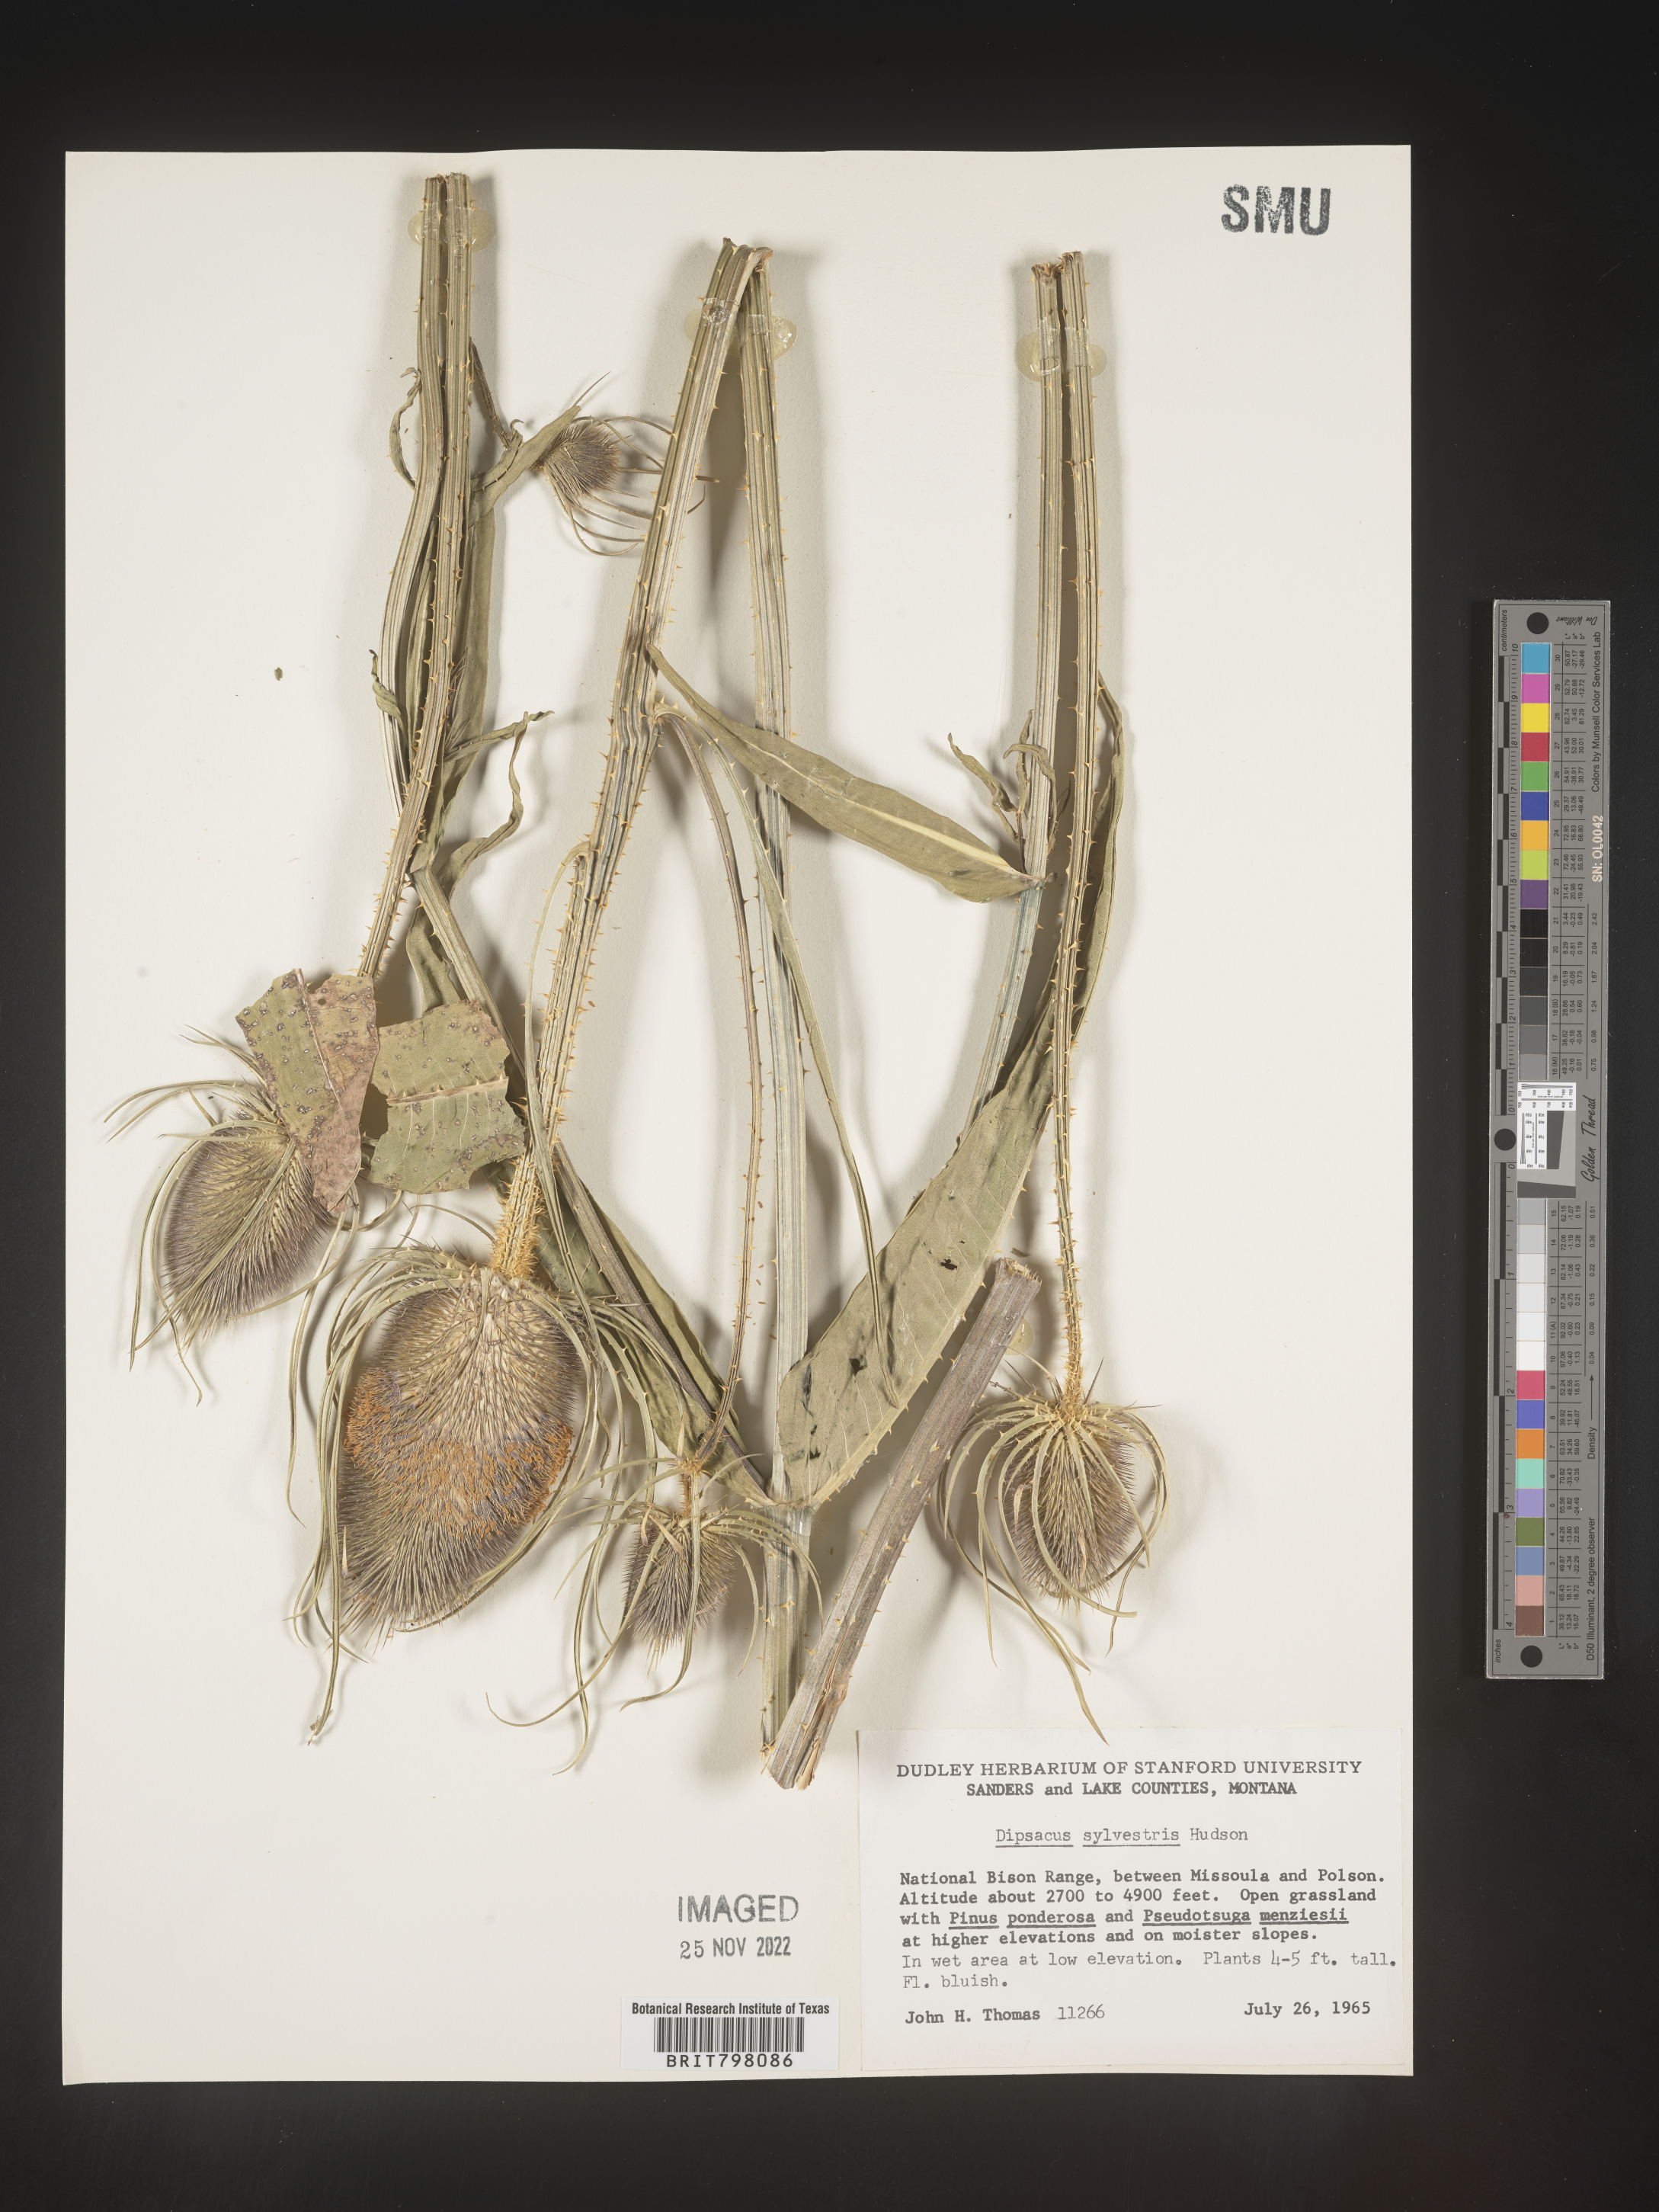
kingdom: Plantae
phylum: Tracheophyta
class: Magnoliopsida
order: Dipsacales
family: Caprifoliaceae
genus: Dipsacus
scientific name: Dipsacus fullonum
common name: Teasel
